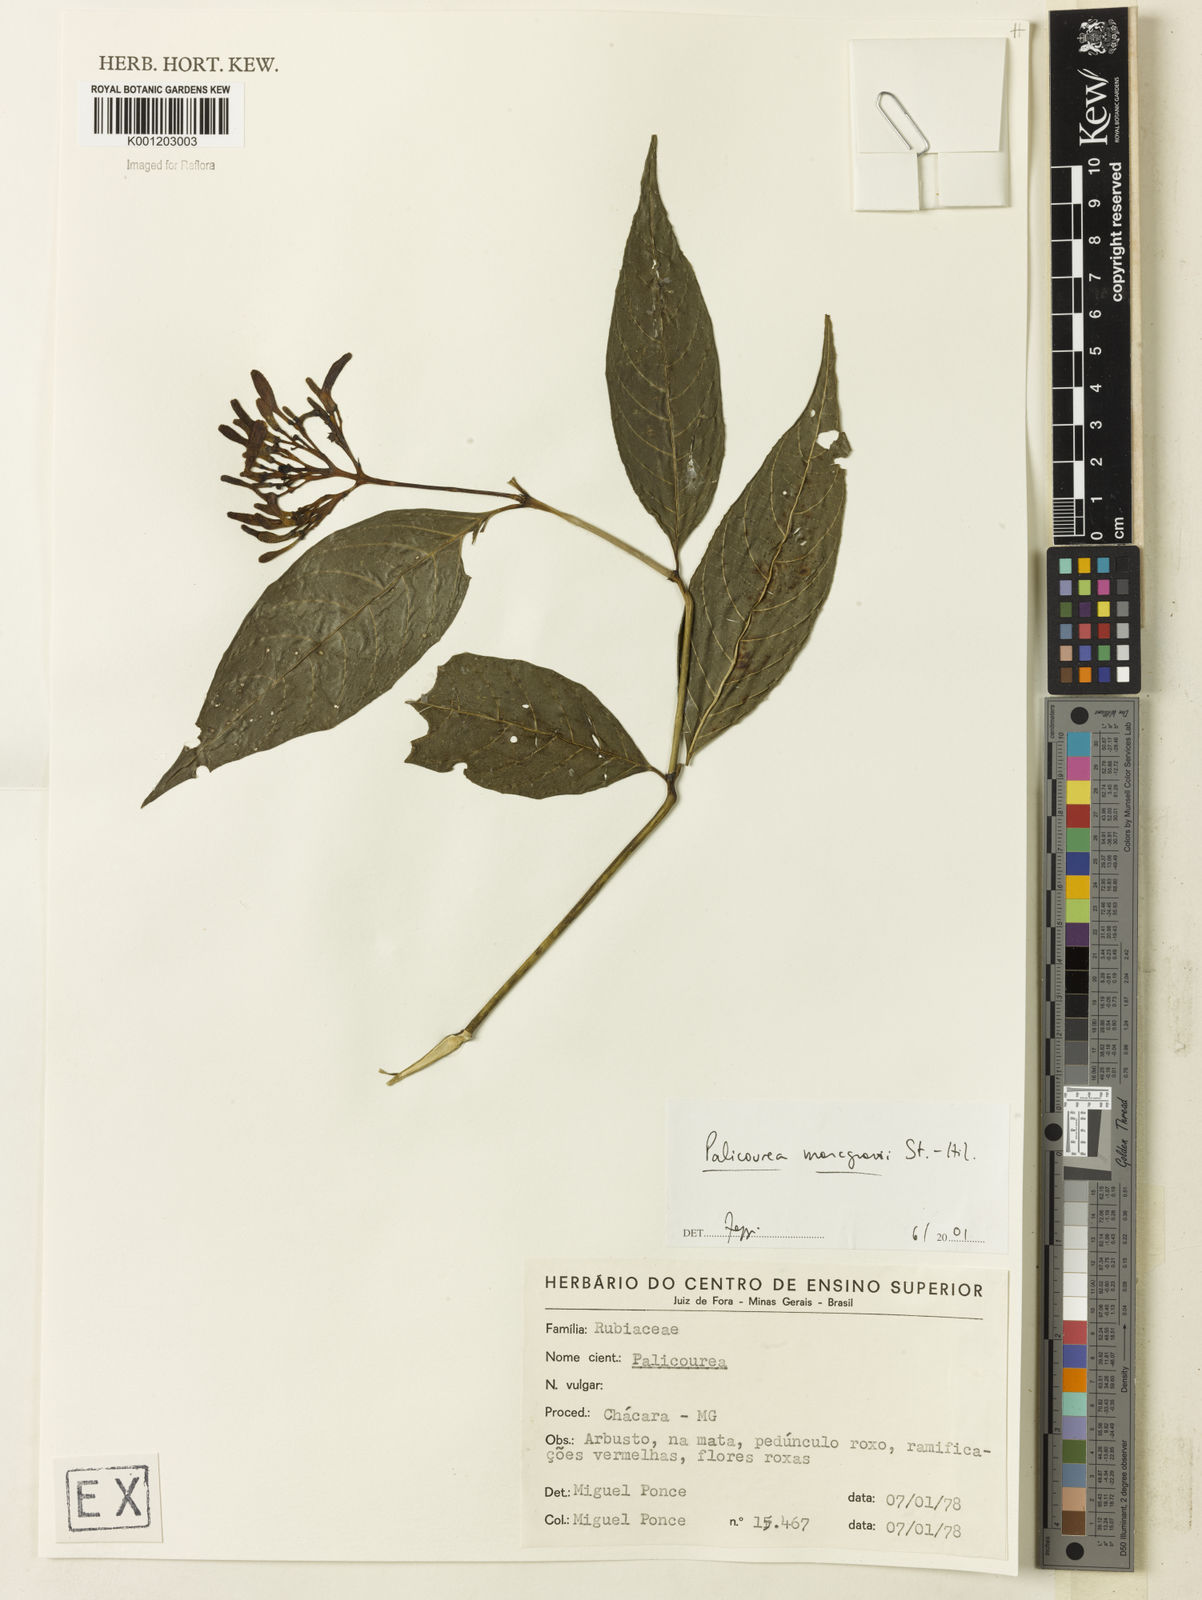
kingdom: Plantae
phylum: Tracheophyta
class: Magnoliopsida
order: Gentianales
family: Rubiaceae
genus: Palicourea
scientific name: Palicourea marcgravii
